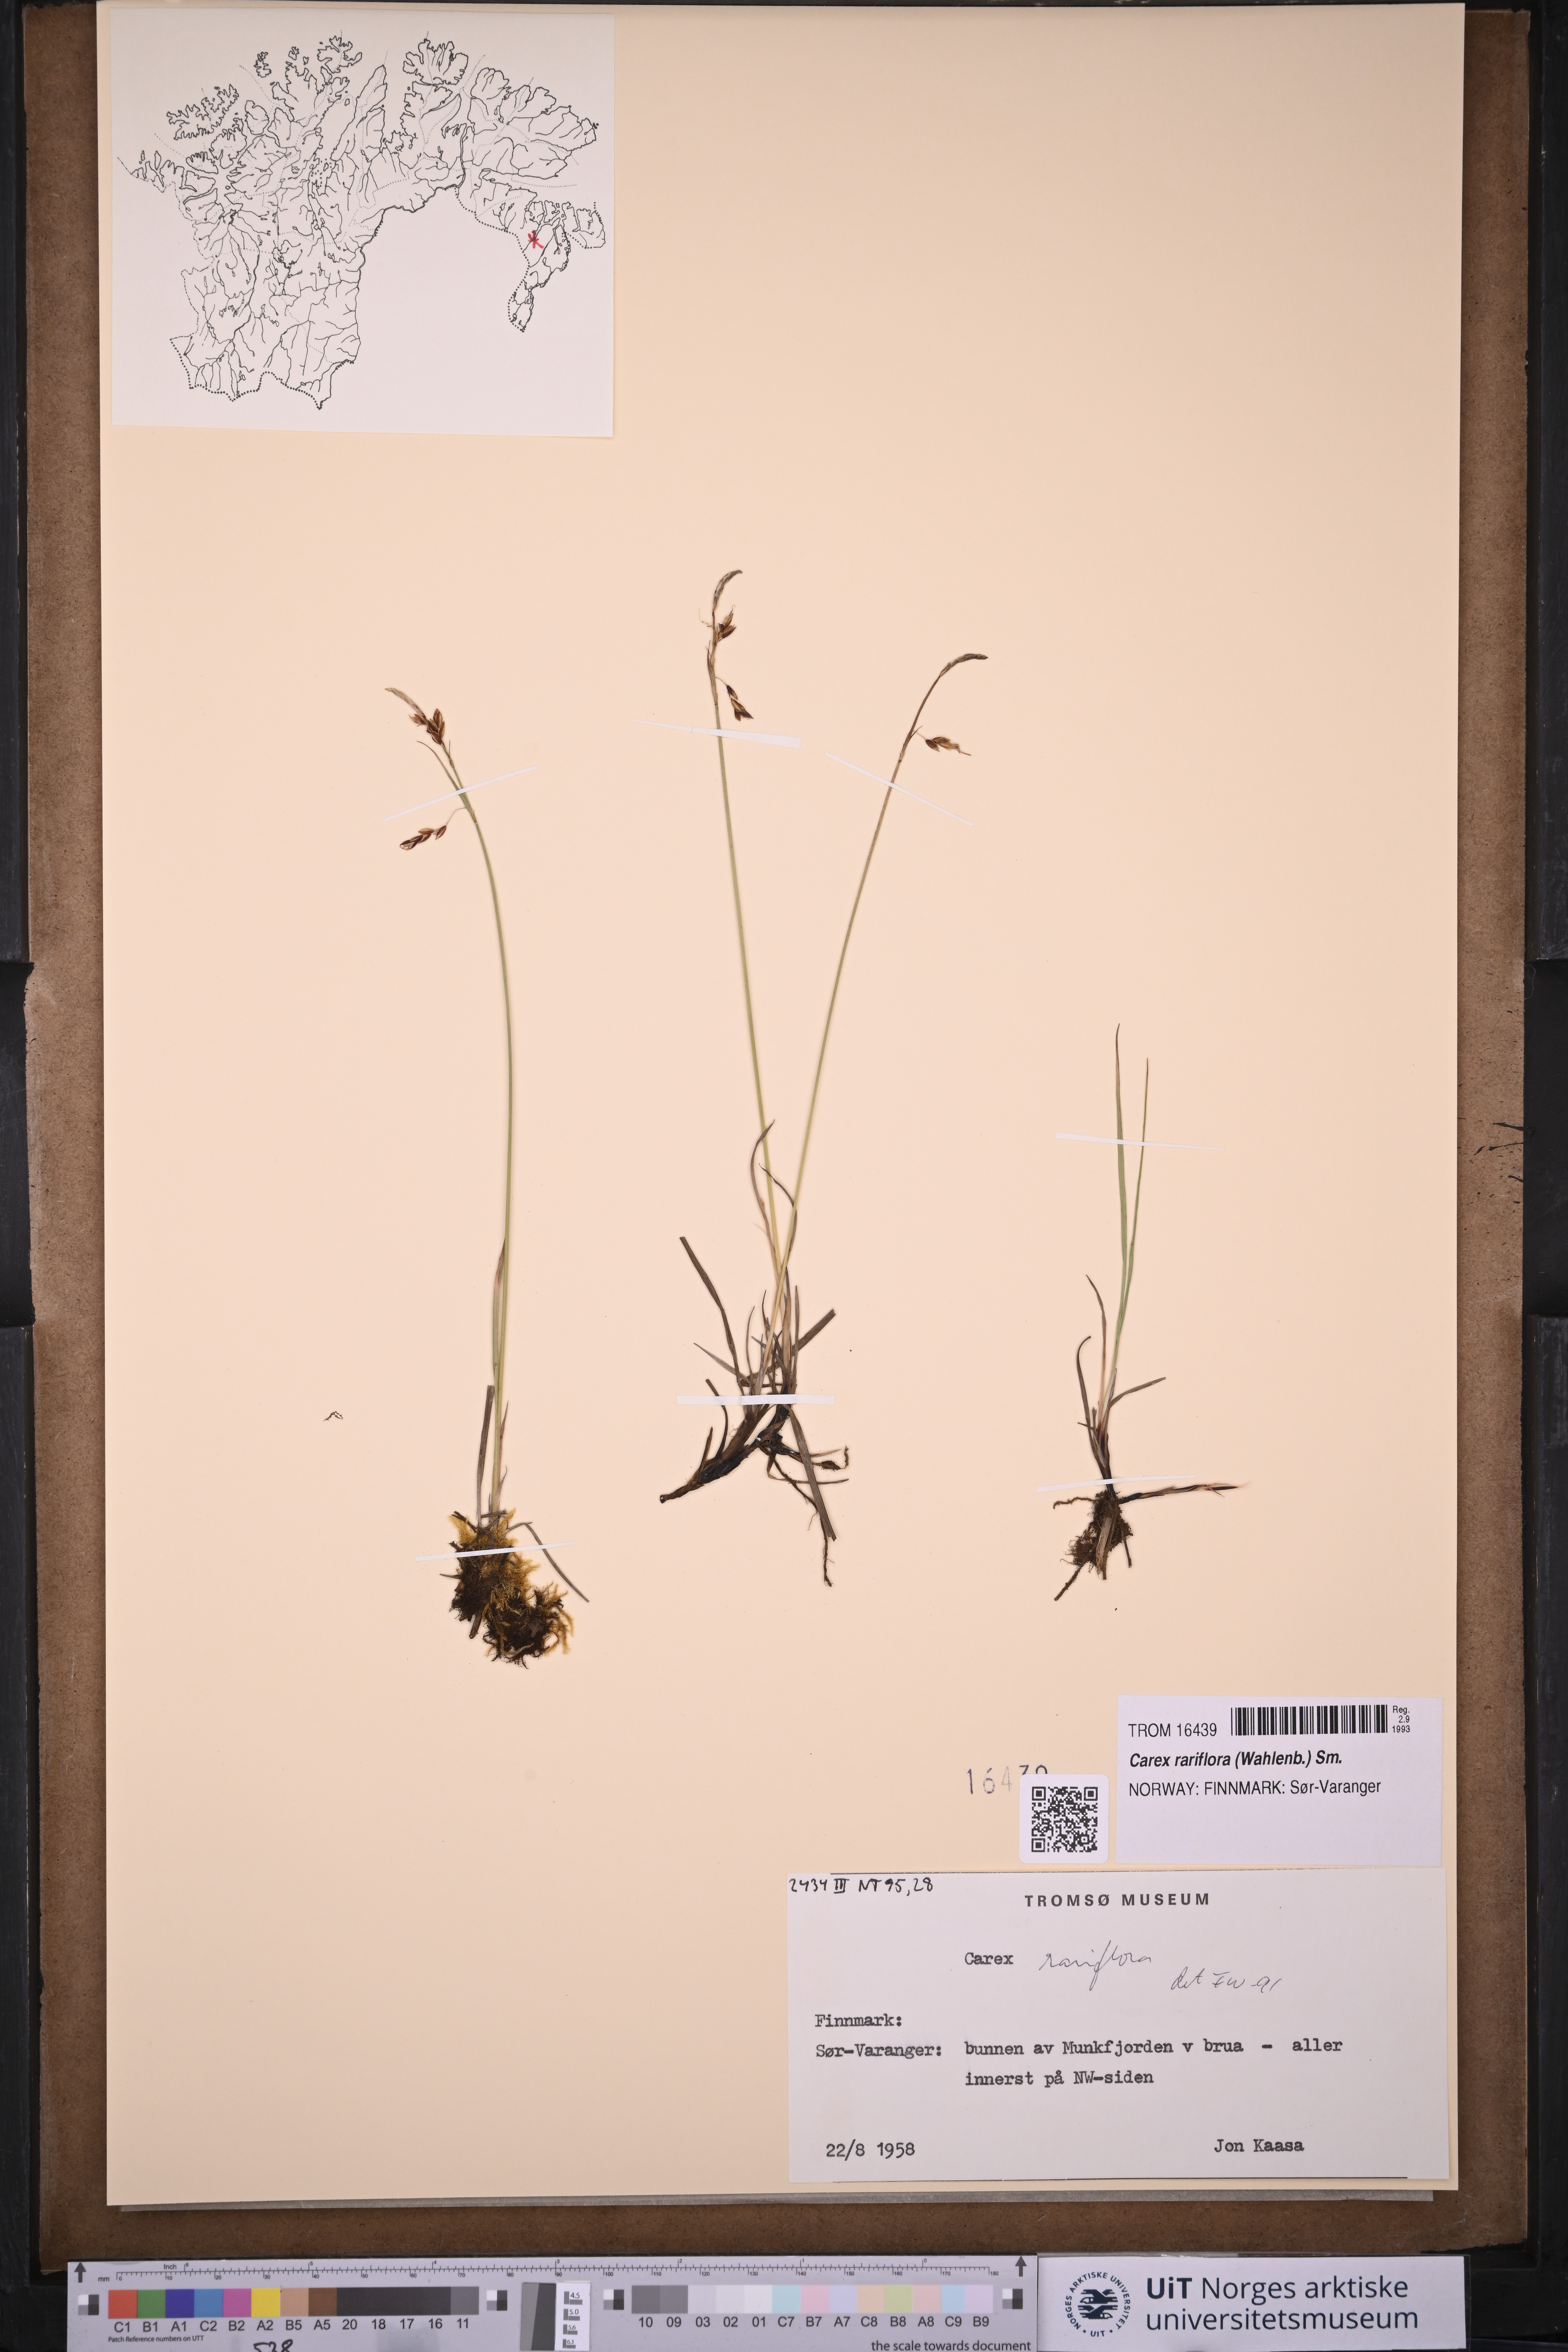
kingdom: Plantae
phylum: Tracheophyta
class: Liliopsida
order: Poales
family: Cyperaceae
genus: Carex
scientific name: Carex rariflora
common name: Loose-flowered alpine sedge
